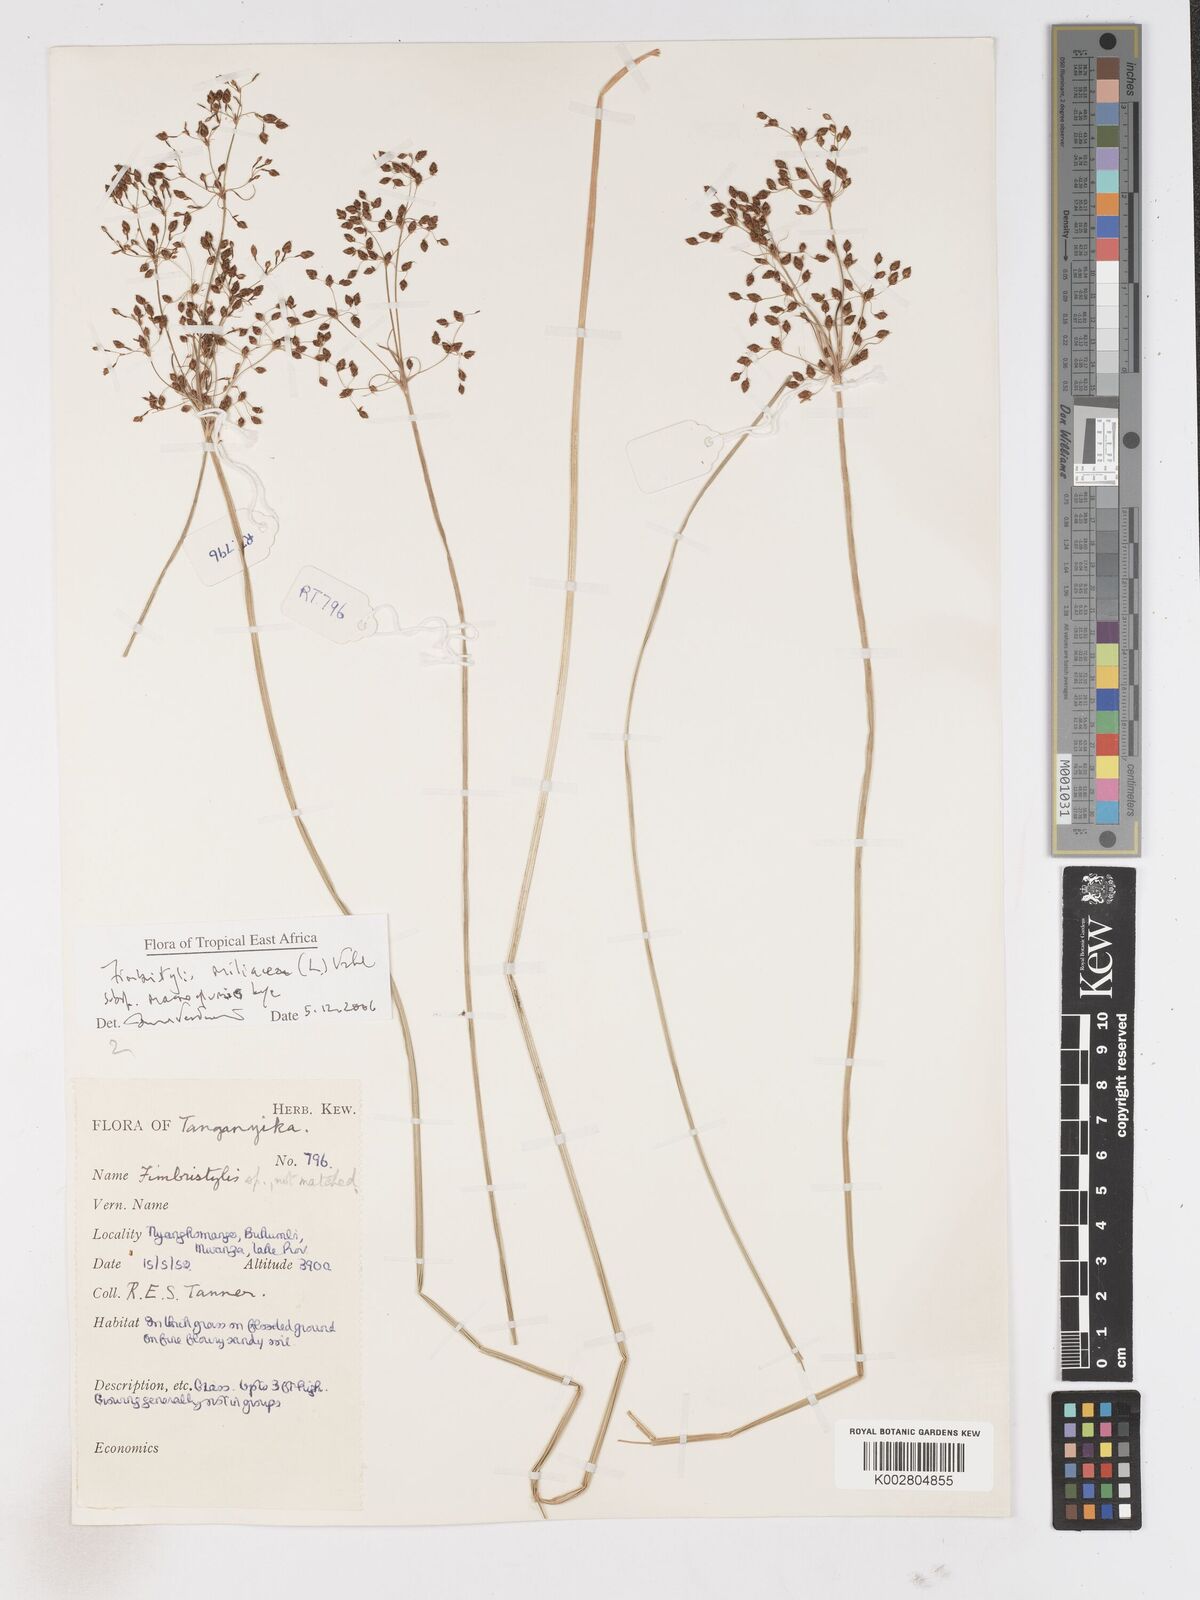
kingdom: Plantae
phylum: Tracheophyta
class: Liliopsida
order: Poales
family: Cyperaceae
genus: Fimbristylis
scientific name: Fimbristylis quinquangularis
